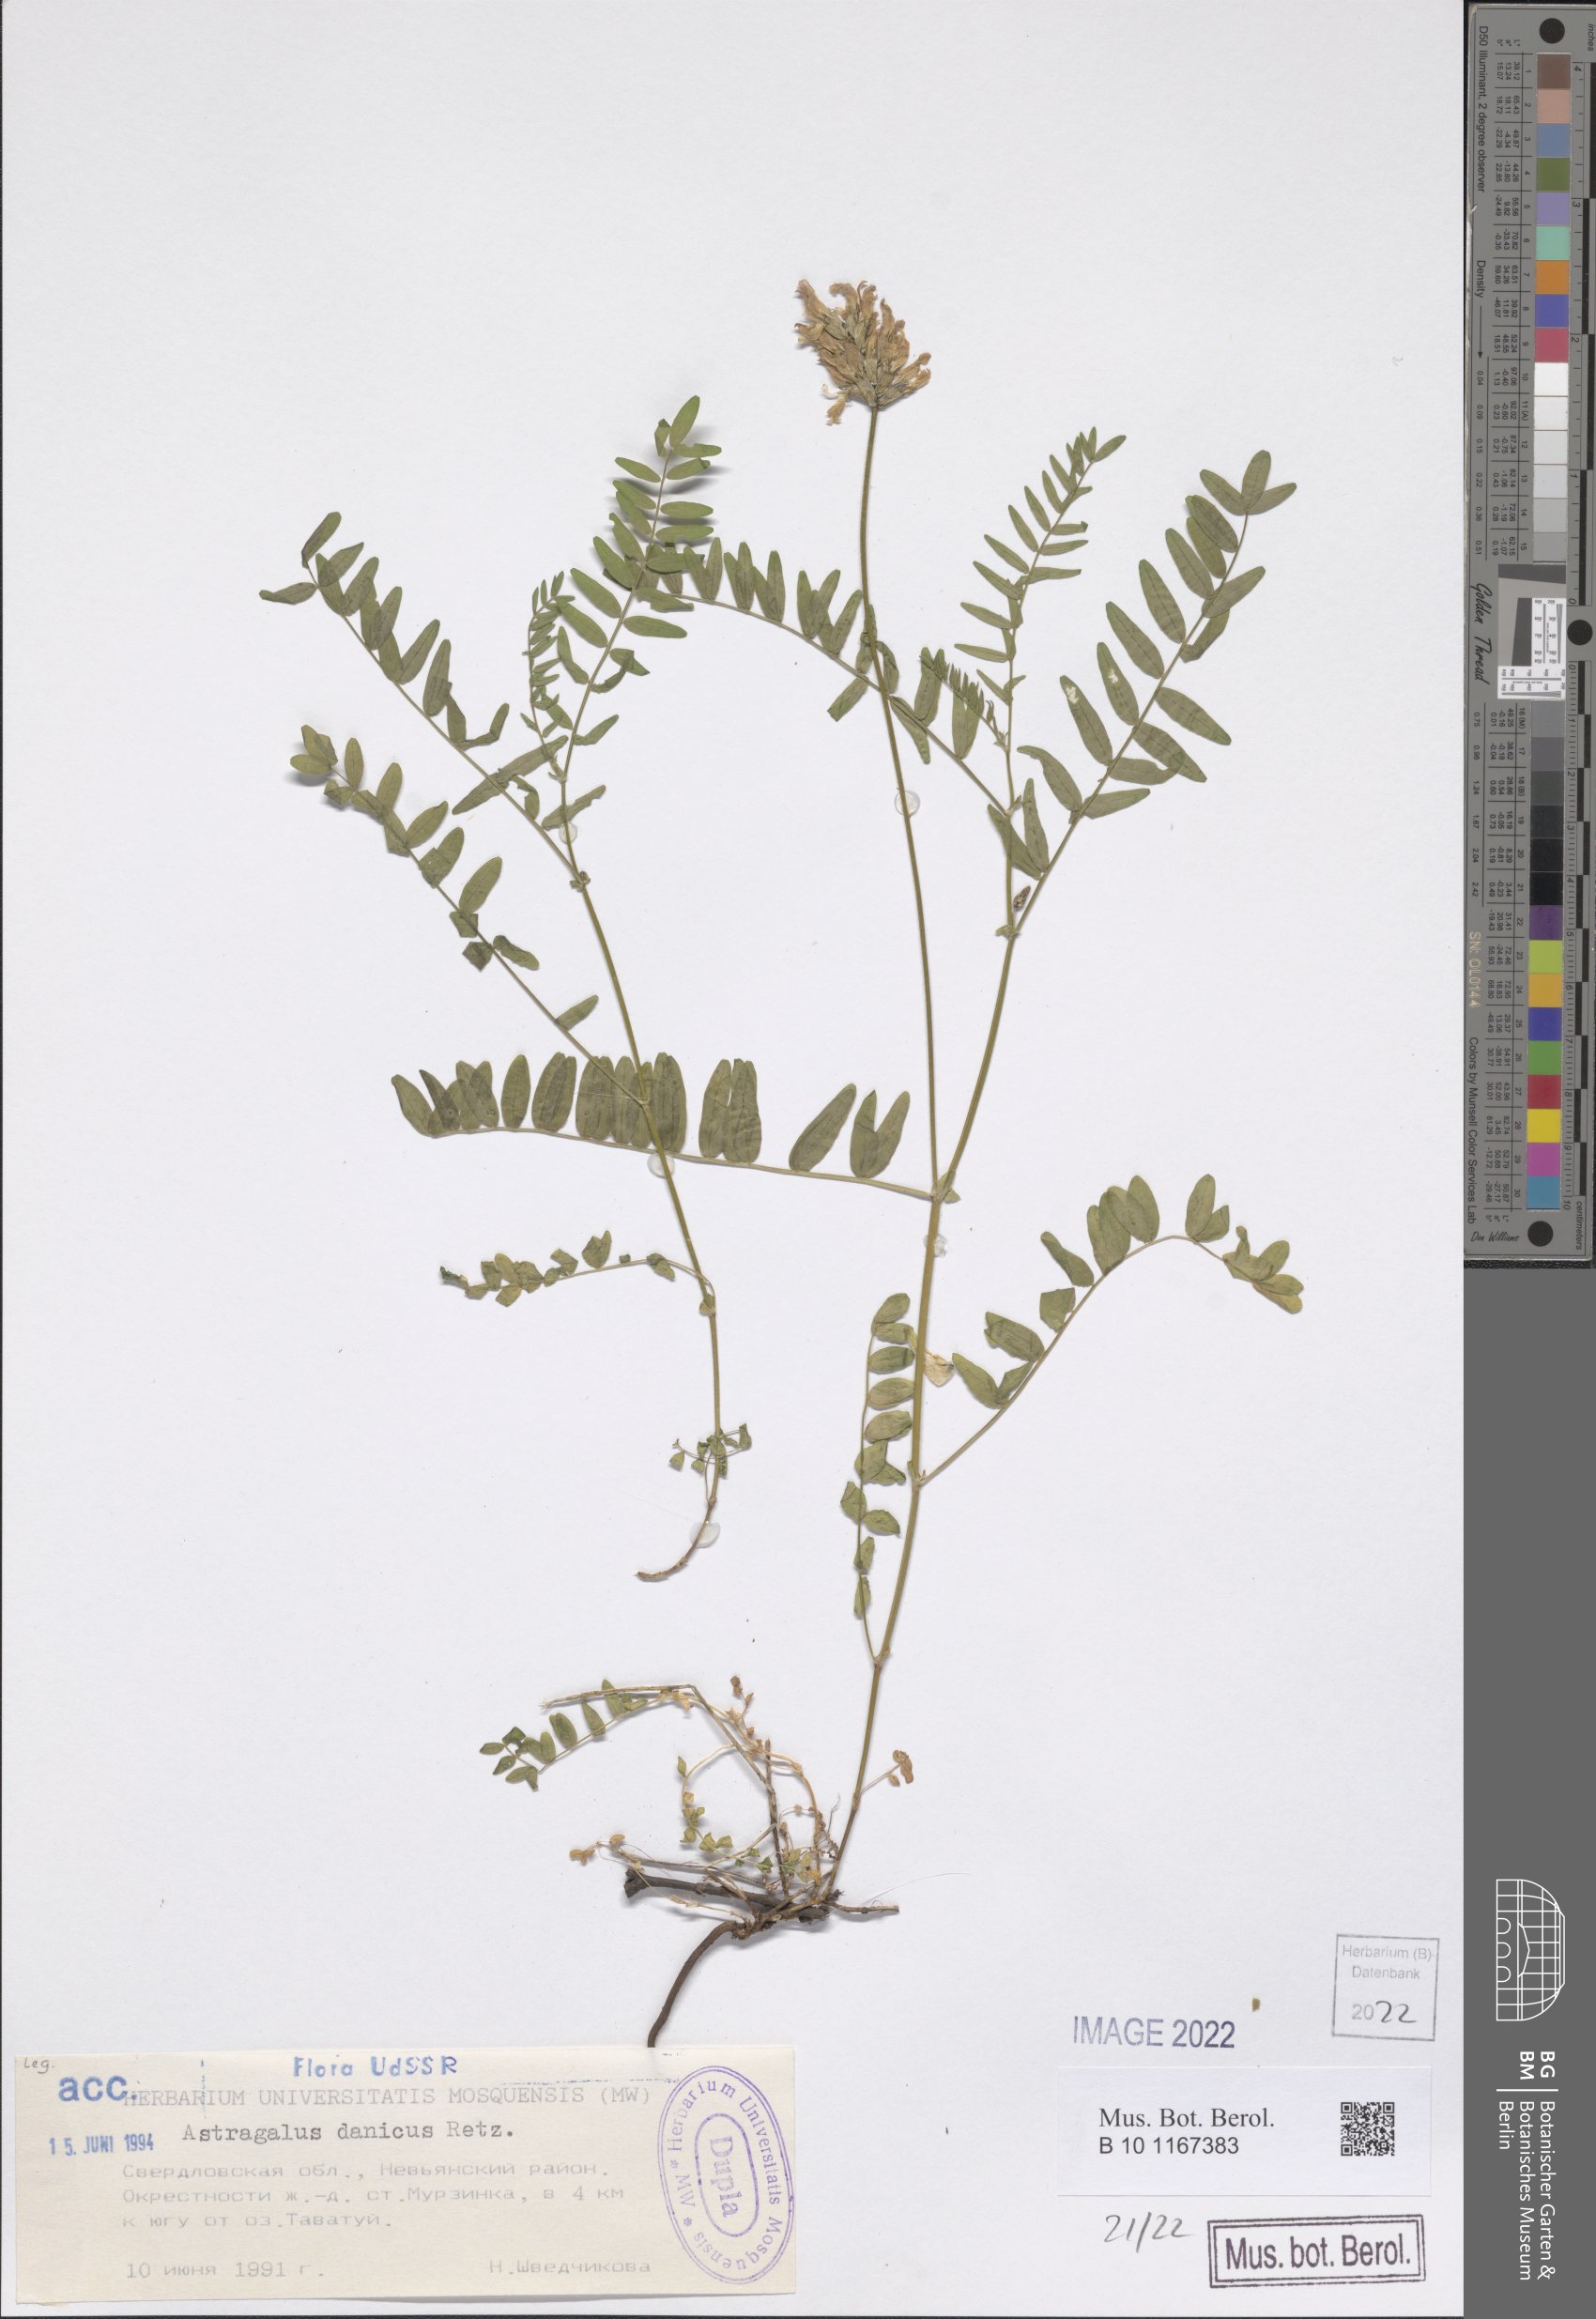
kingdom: Plantae
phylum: Tracheophyta
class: Magnoliopsida
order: Fabales
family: Fabaceae
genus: Astragalus
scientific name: Astragalus danicus
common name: Purple milk-vetch
